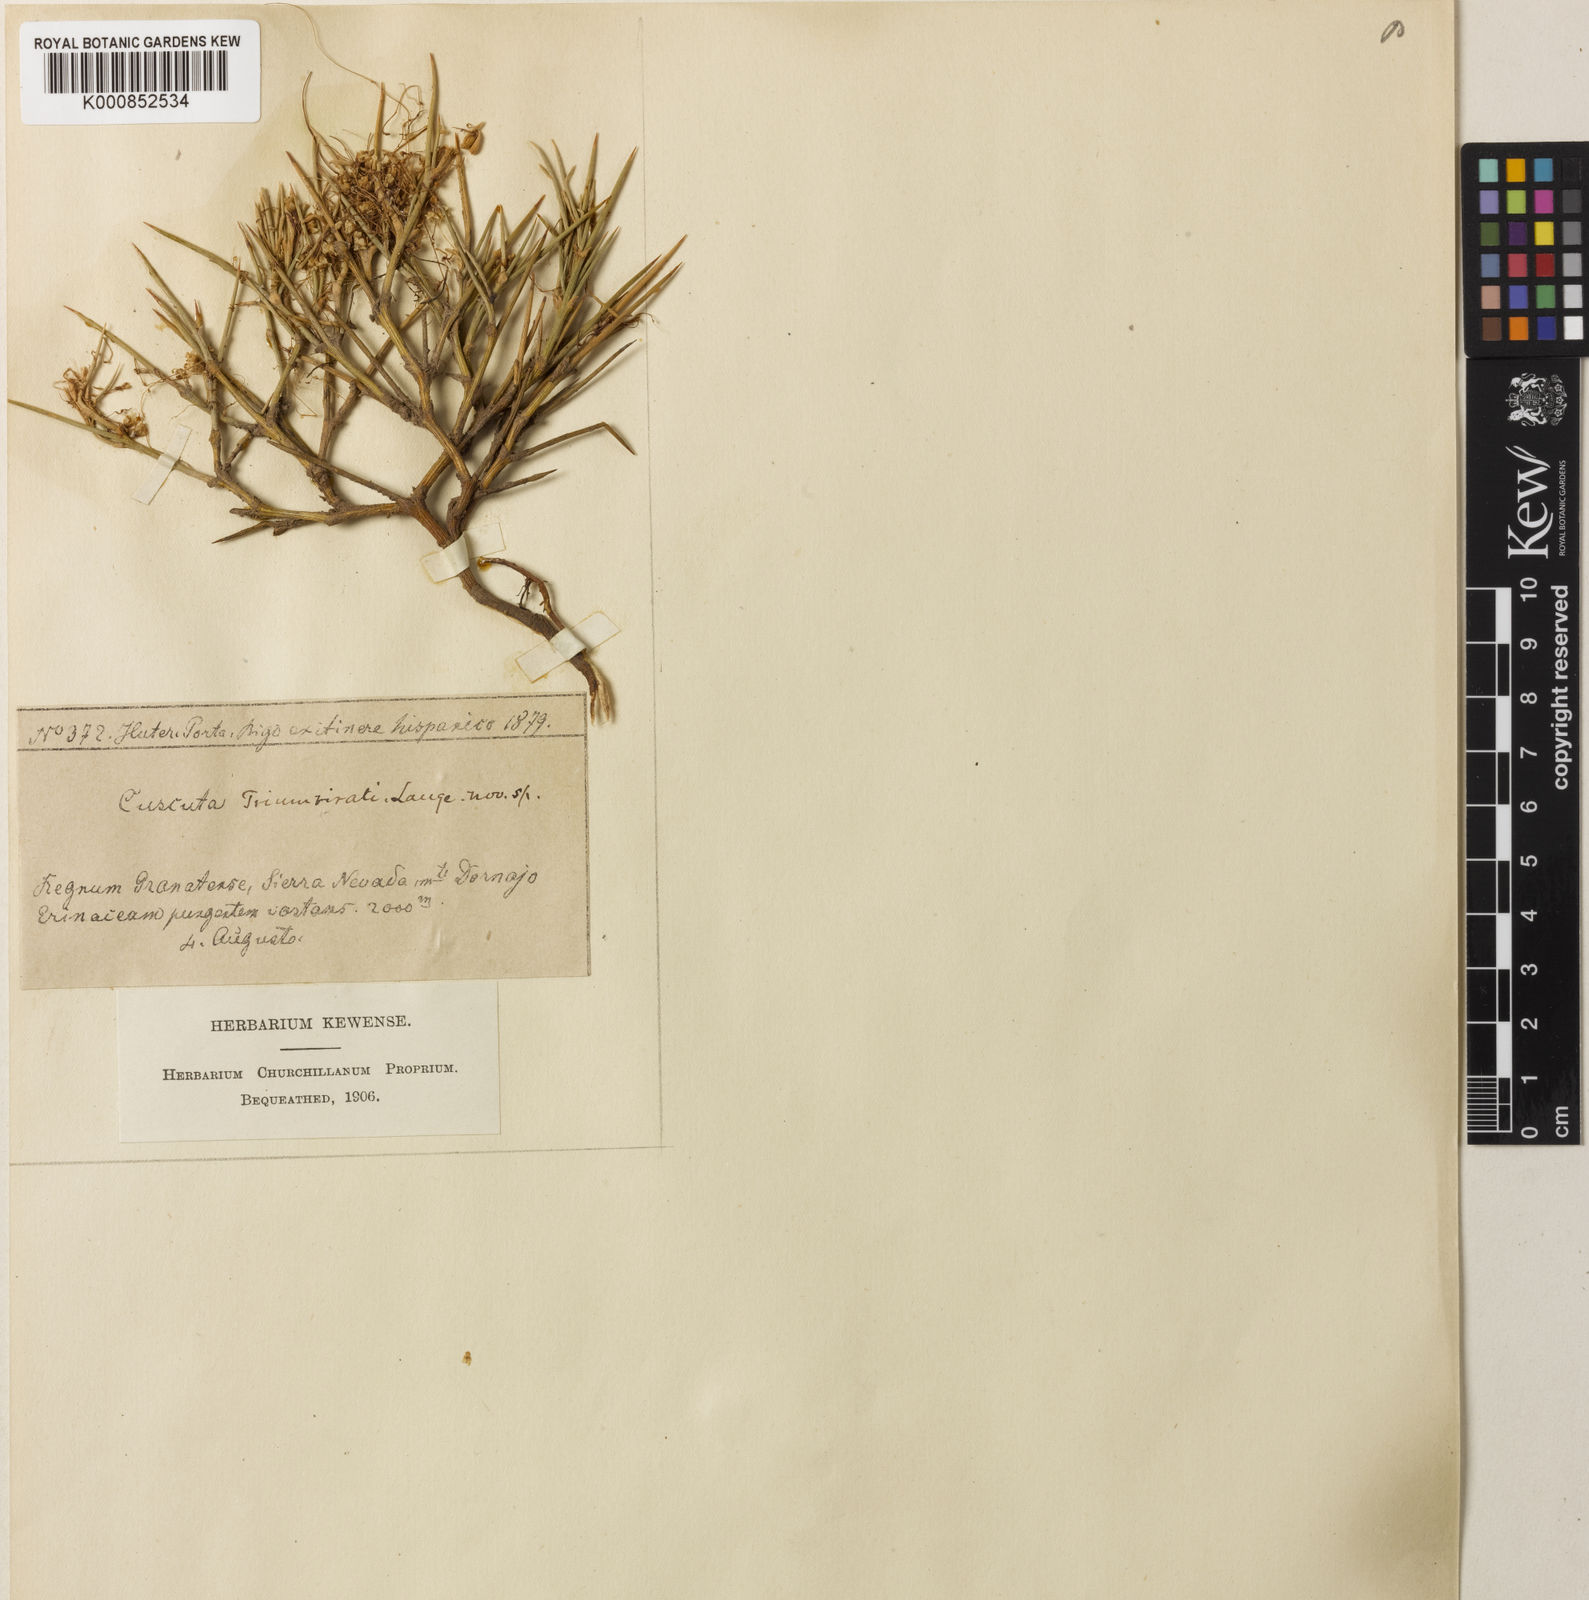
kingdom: Plantae
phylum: Tracheophyta
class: Magnoliopsida
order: Solanales
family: Convolvulaceae
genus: Cuscuta
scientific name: Cuscuta triumvirati
